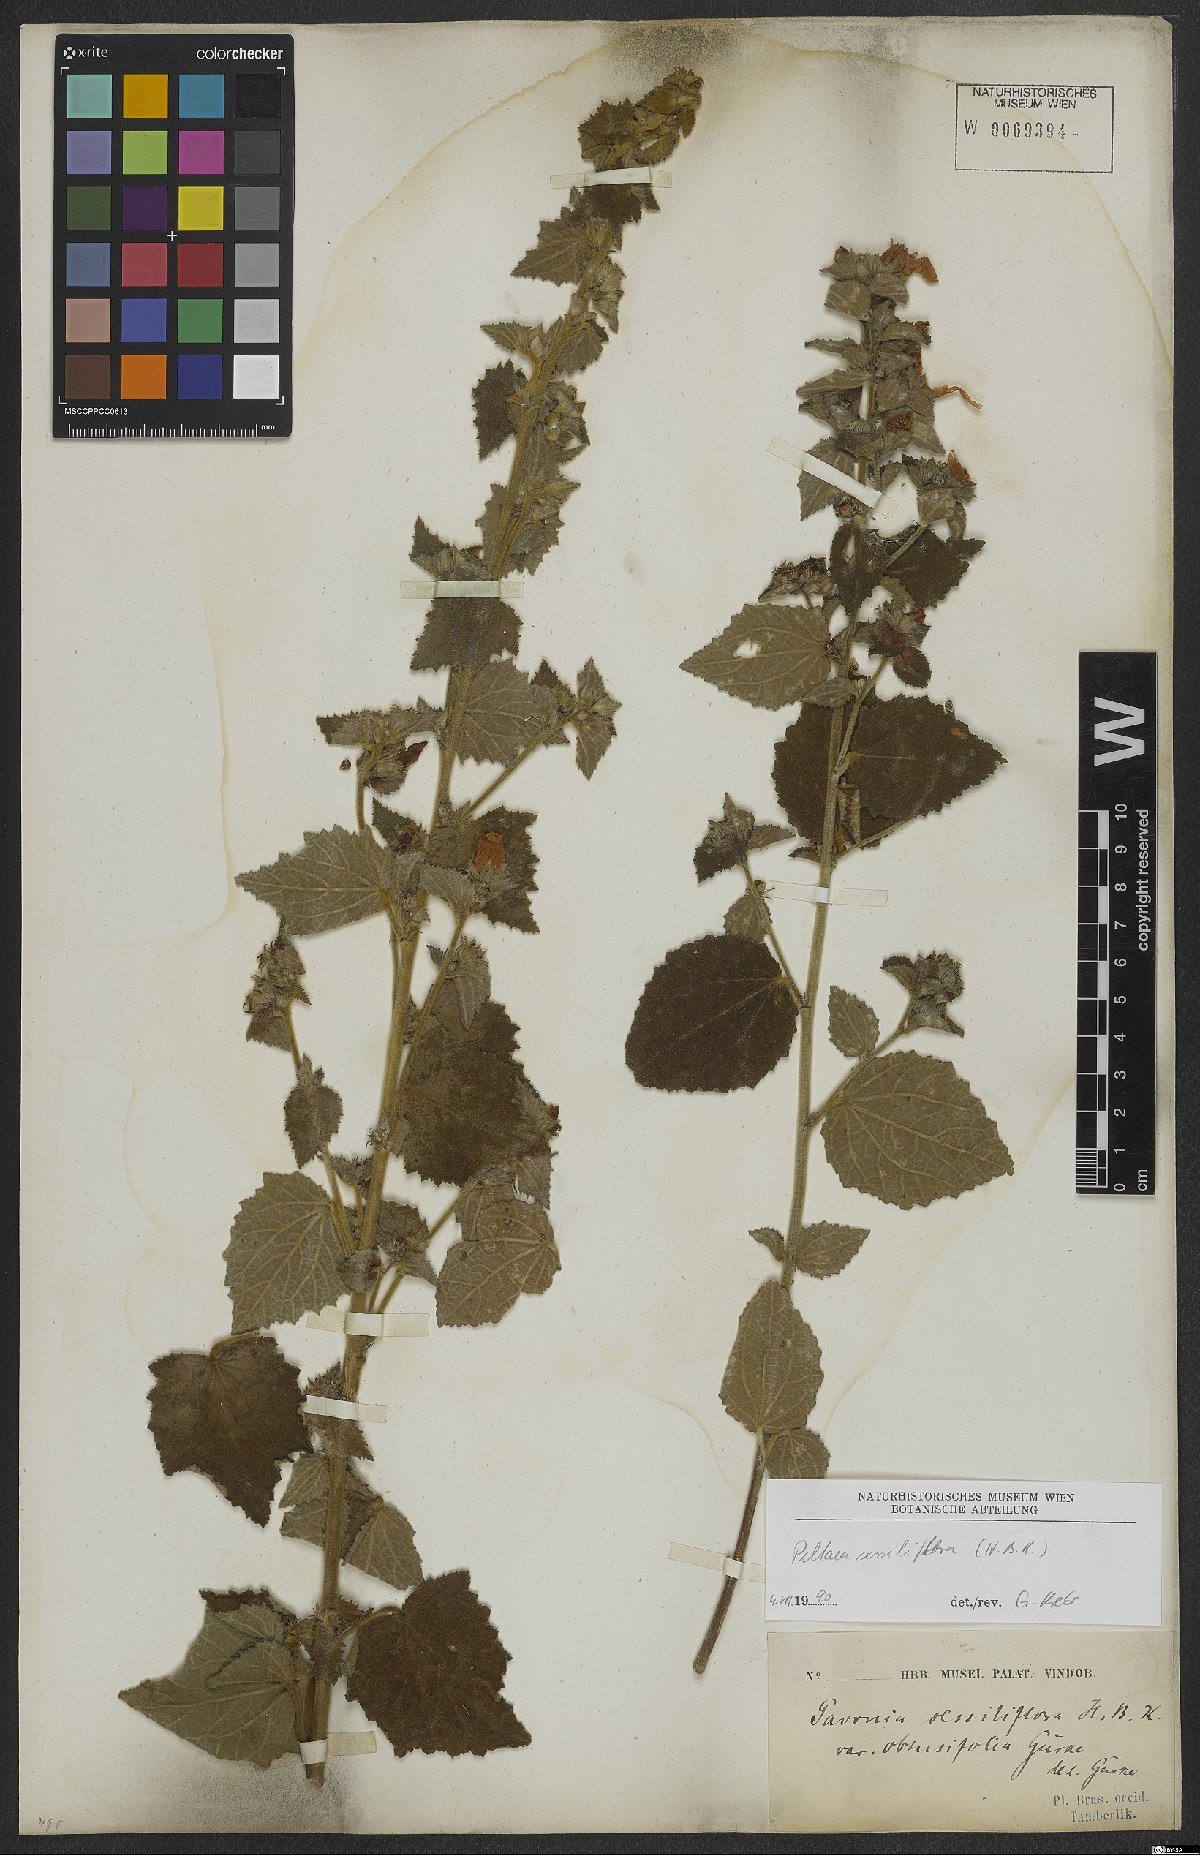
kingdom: Plantae
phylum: Tracheophyta
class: Magnoliopsida
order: Malvales
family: Malvaceae
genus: Peltaea
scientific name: Peltaea sessiliflora
